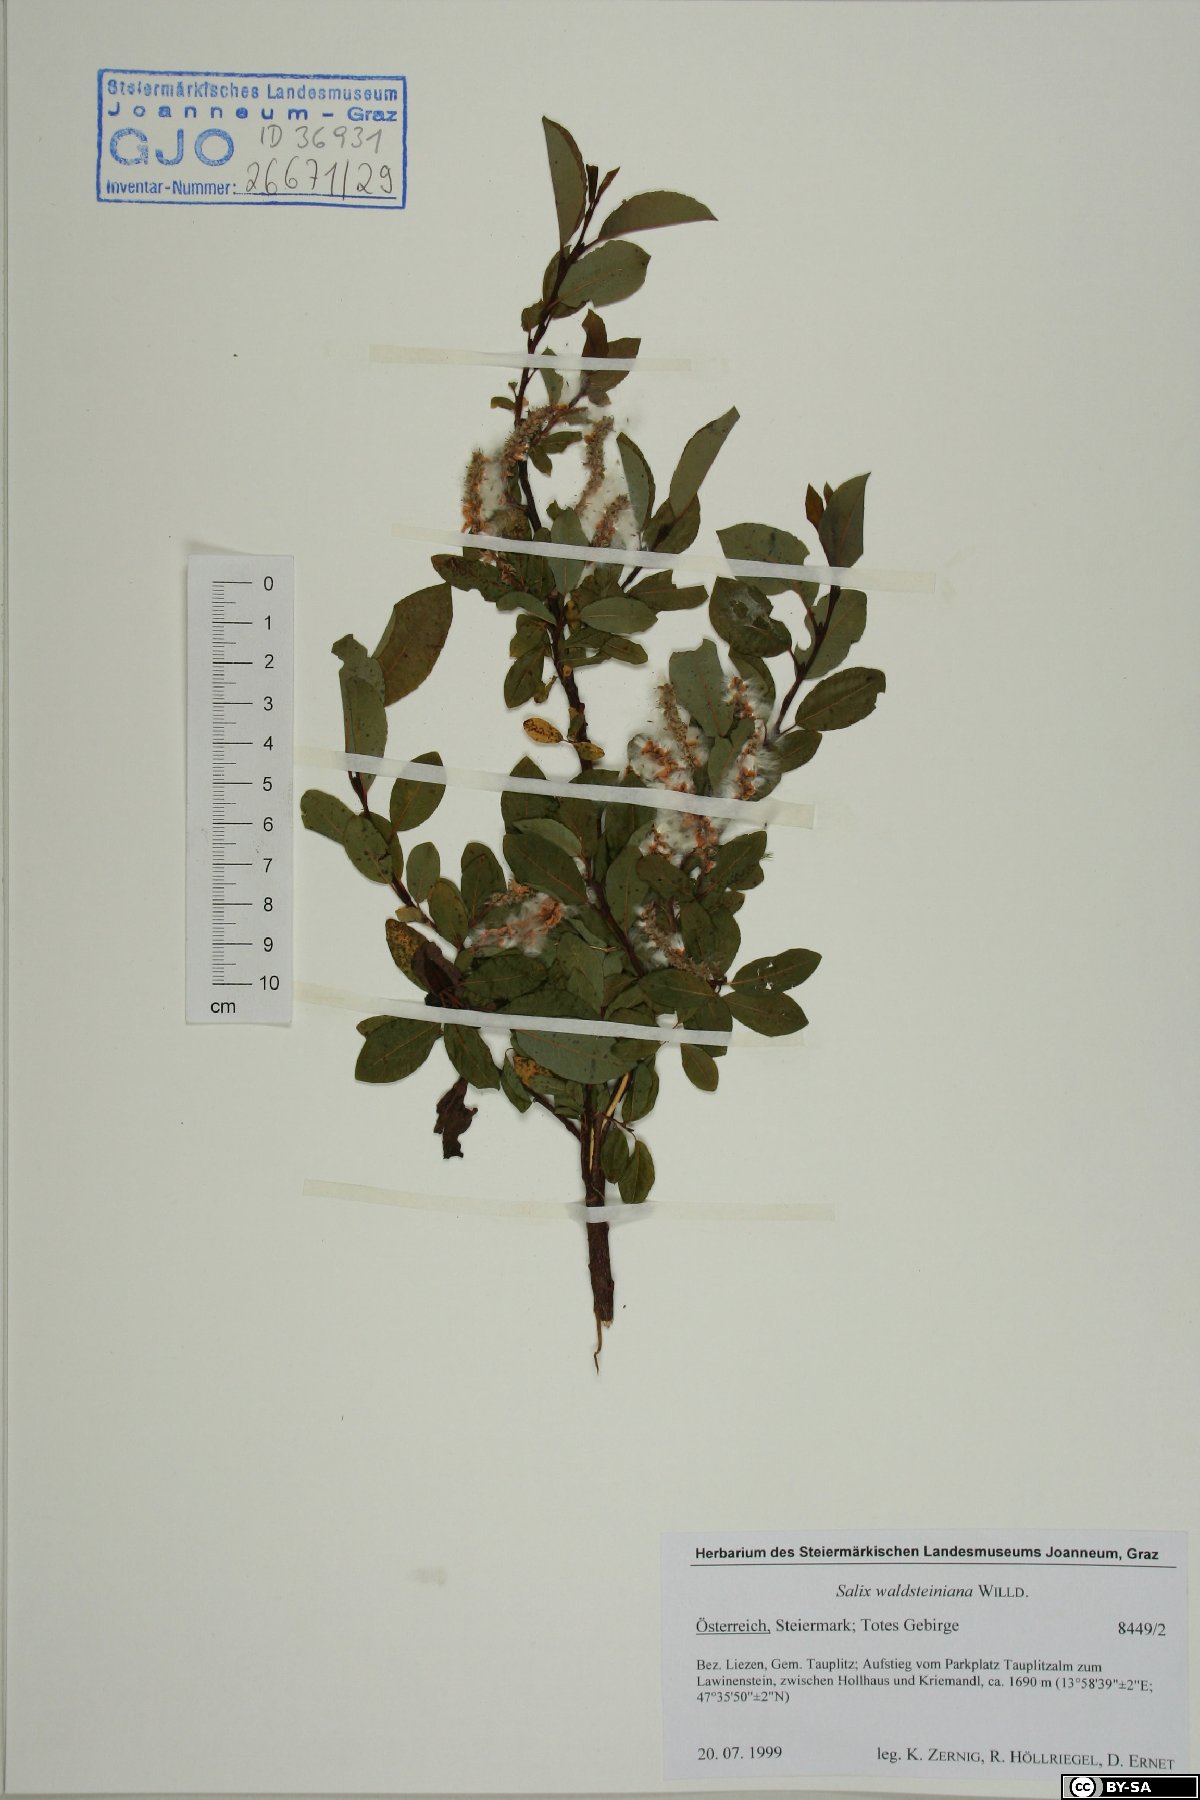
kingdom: Plantae
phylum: Tracheophyta
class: Magnoliopsida
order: Malpighiales
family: Salicaceae
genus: Salix
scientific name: Salix waldsteiniana
